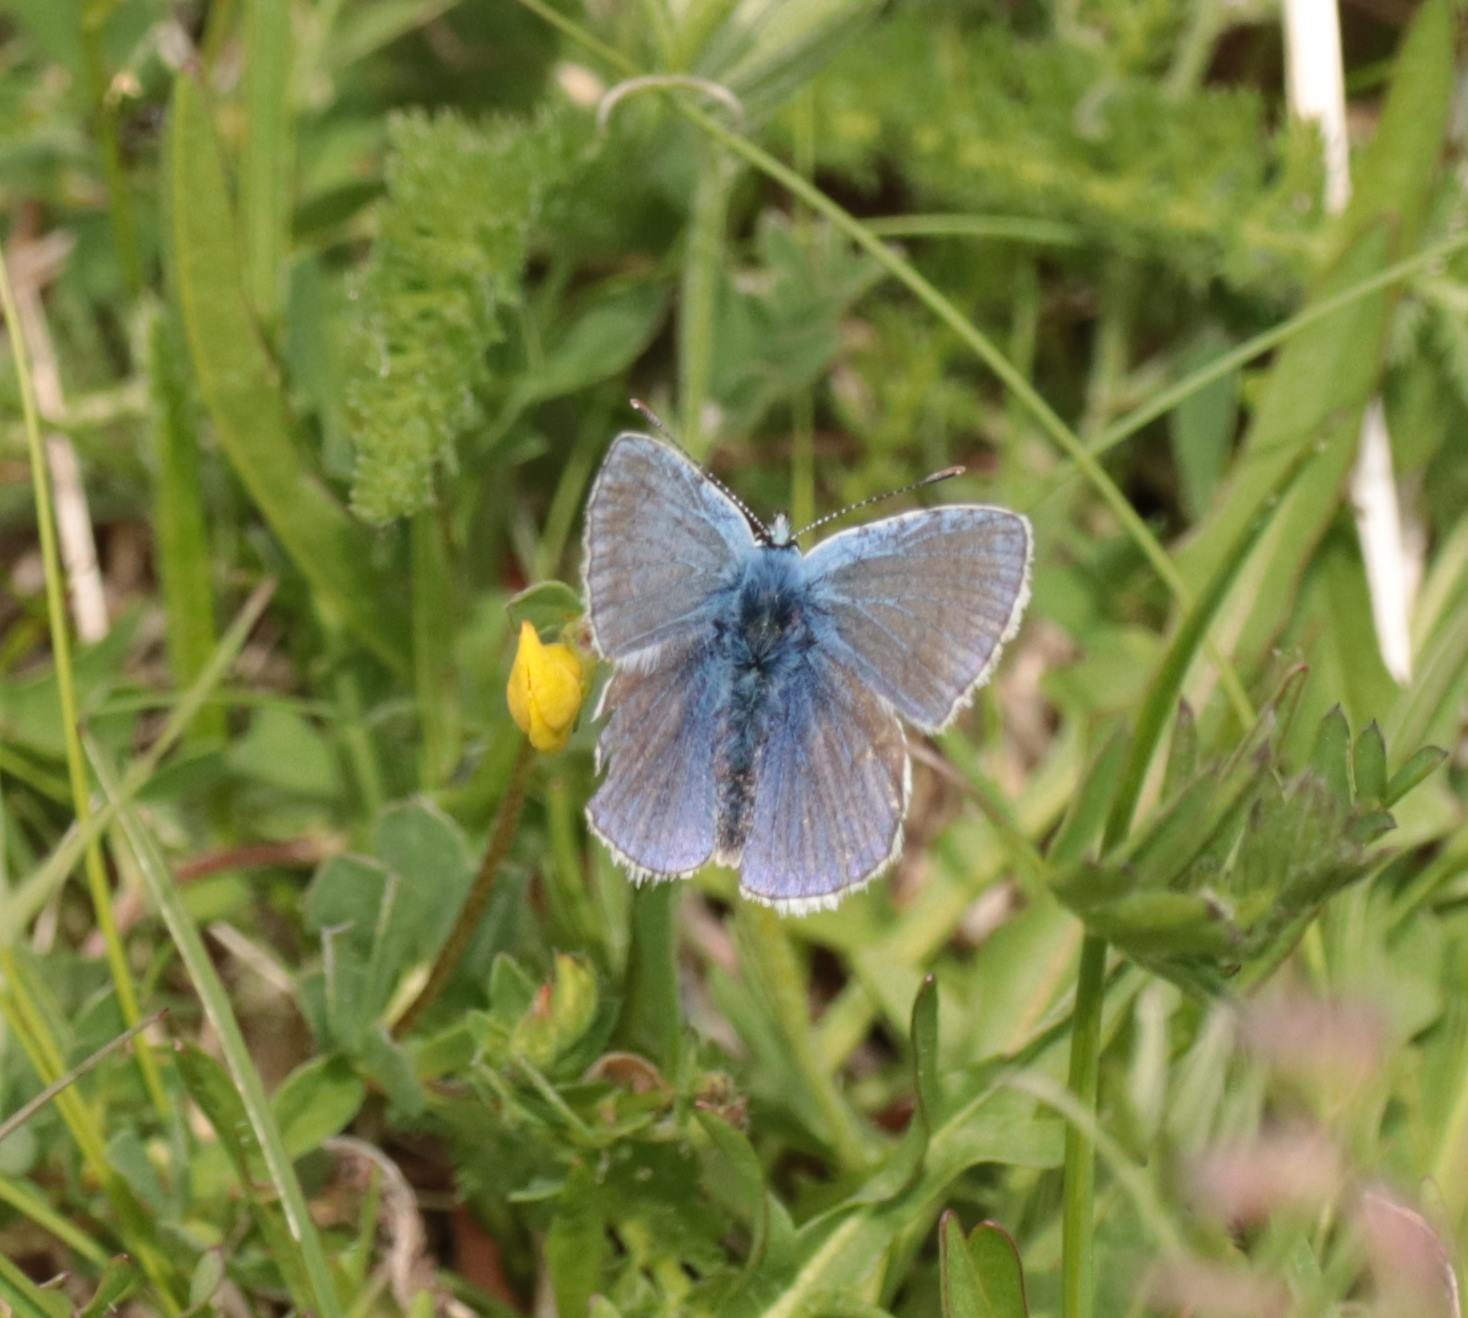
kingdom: Animalia
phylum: Arthropoda
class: Insecta
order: Lepidoptera
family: Lycaenidae
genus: Polyommatus
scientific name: Polyommatus icarus
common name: Almindelig blåfugl
